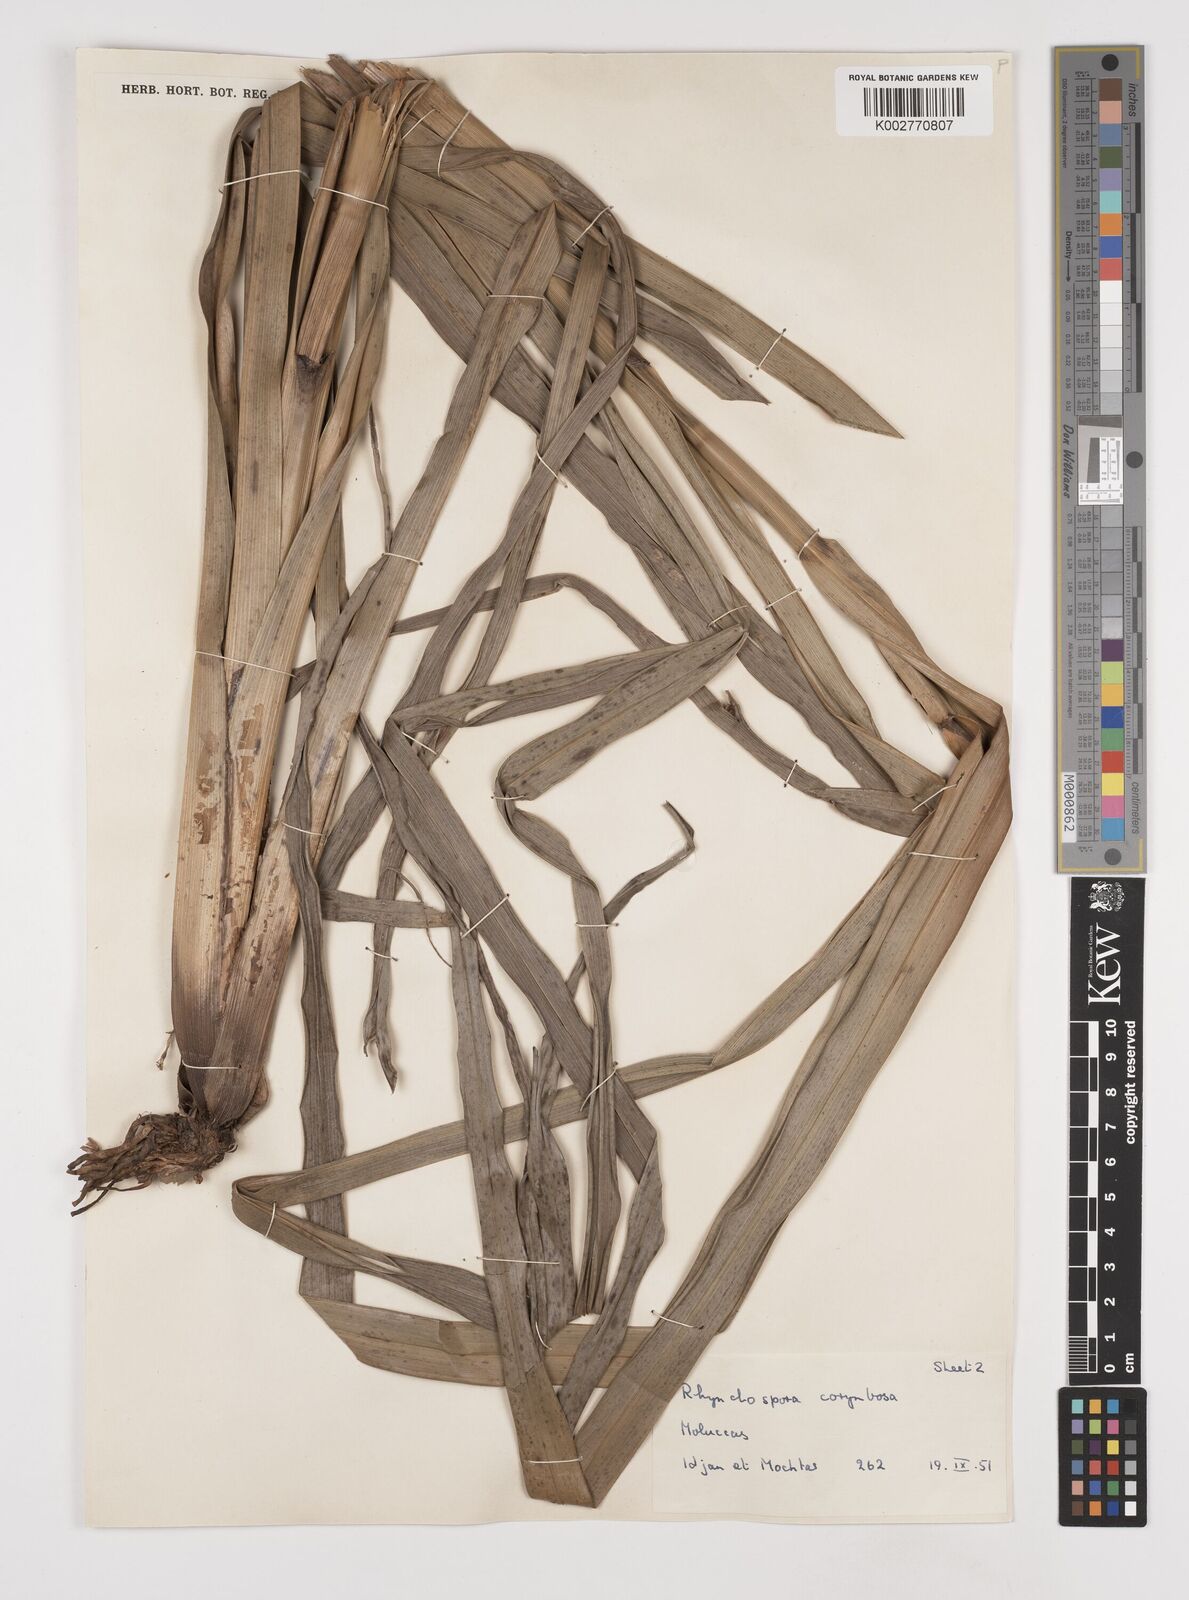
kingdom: Plantae
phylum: Tracheophyta
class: Liliopsida
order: Poales
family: Cyperaceae
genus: Rhynchospora
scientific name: Rhynchospora corymbosa
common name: Golden beak sedge
